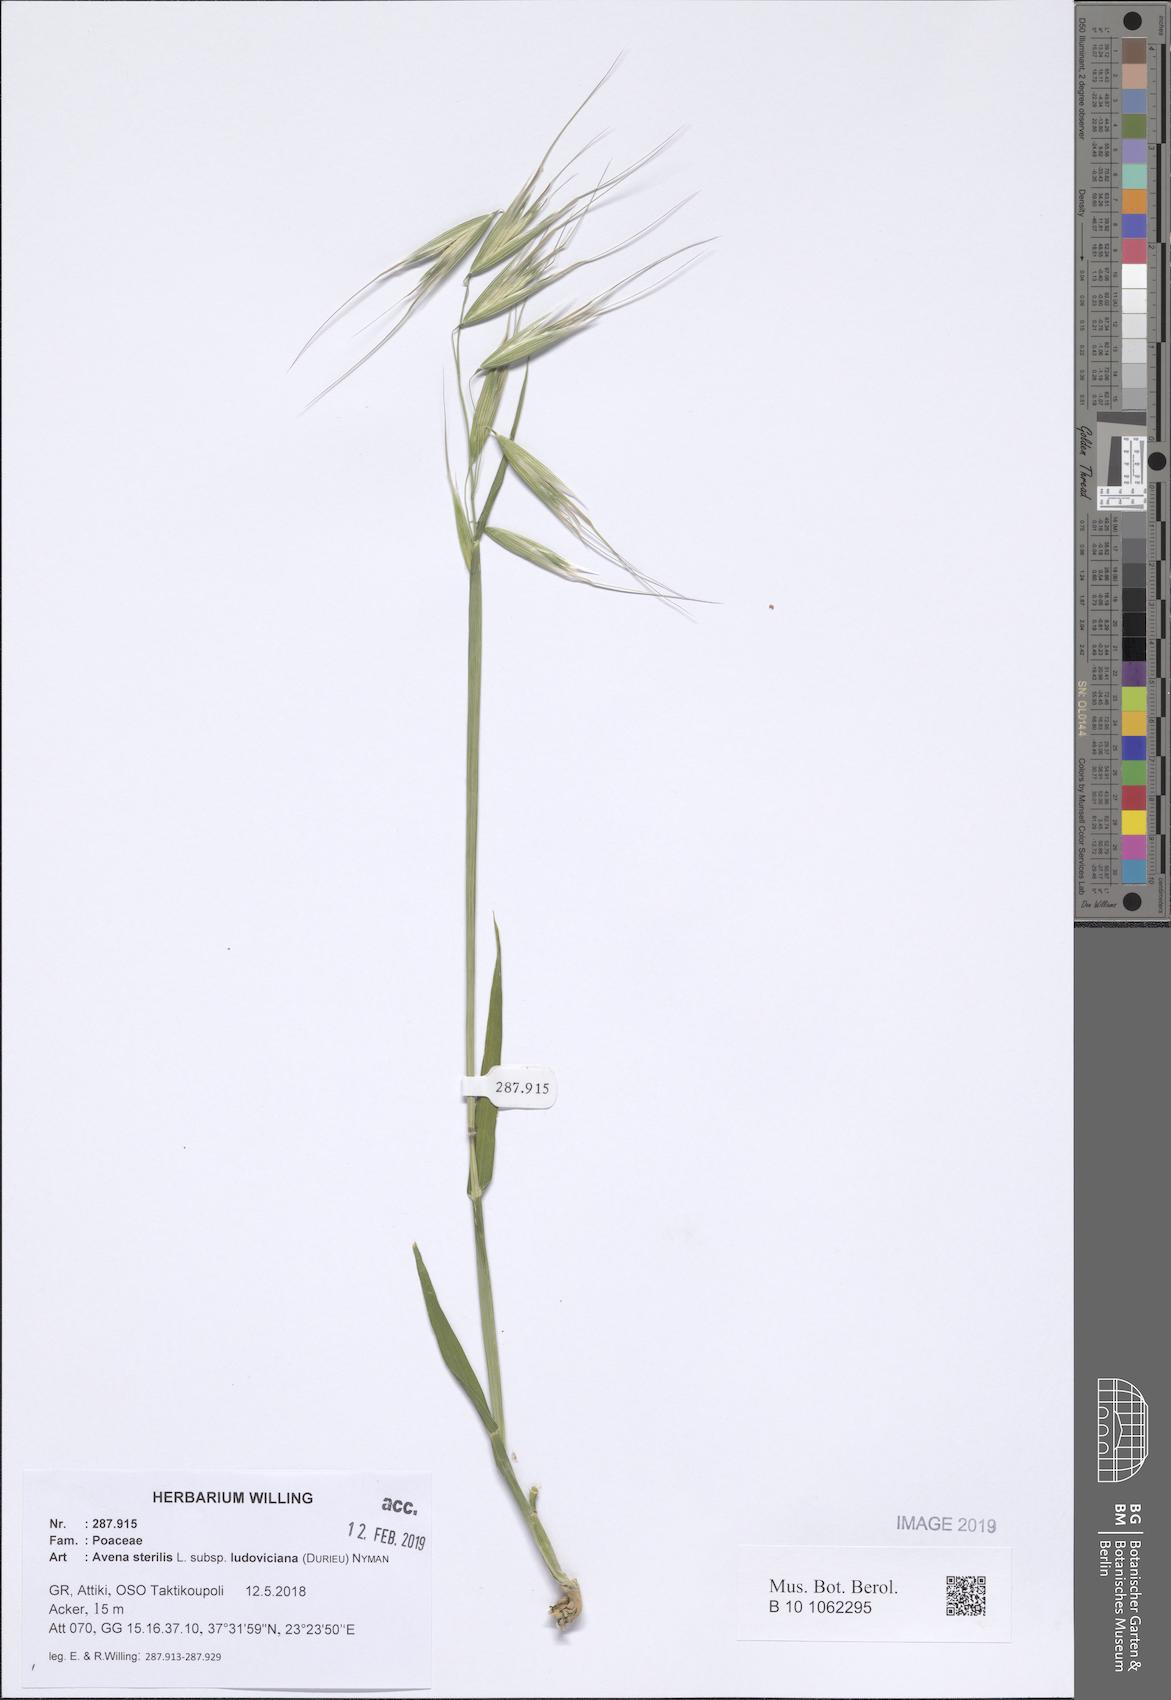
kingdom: Plantae
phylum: Tracheophyta
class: Liliopsida
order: Poales
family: Poaceae
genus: Avena
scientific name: Avena sterilis
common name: Animated oat
